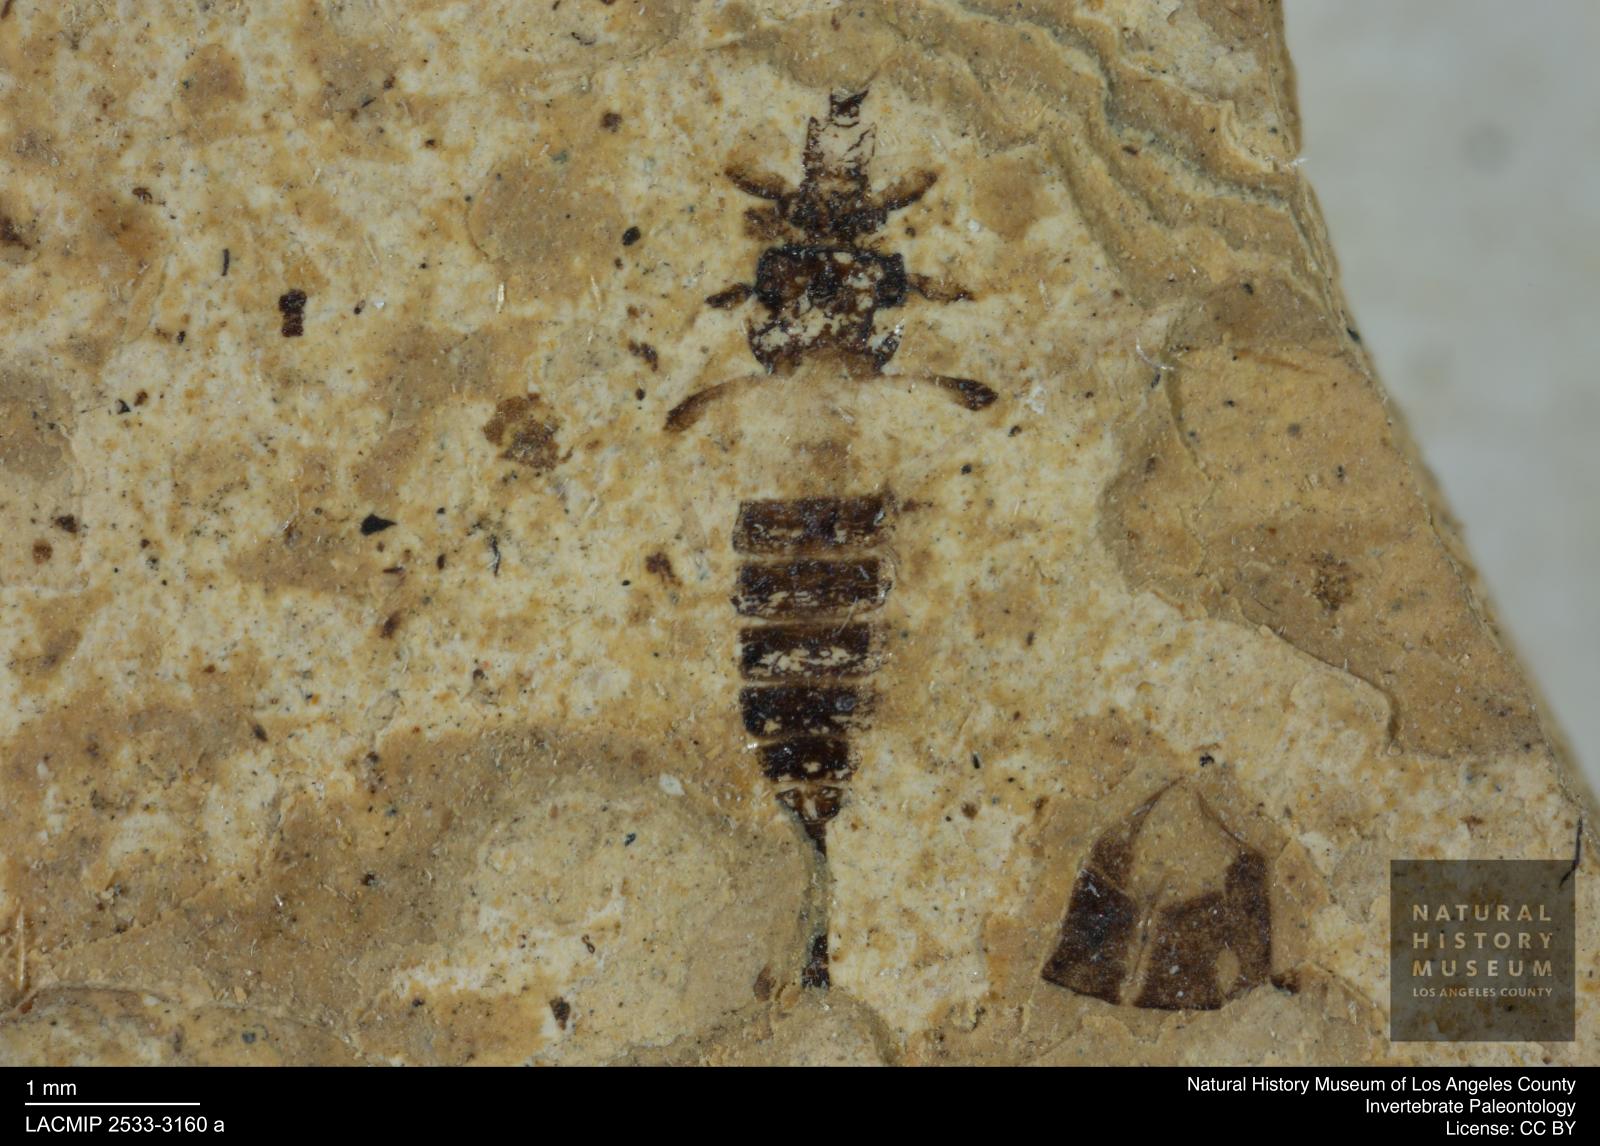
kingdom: Animalia
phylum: Arthropoda
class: Insecta
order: Thysanoptera
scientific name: Thysanoptera
